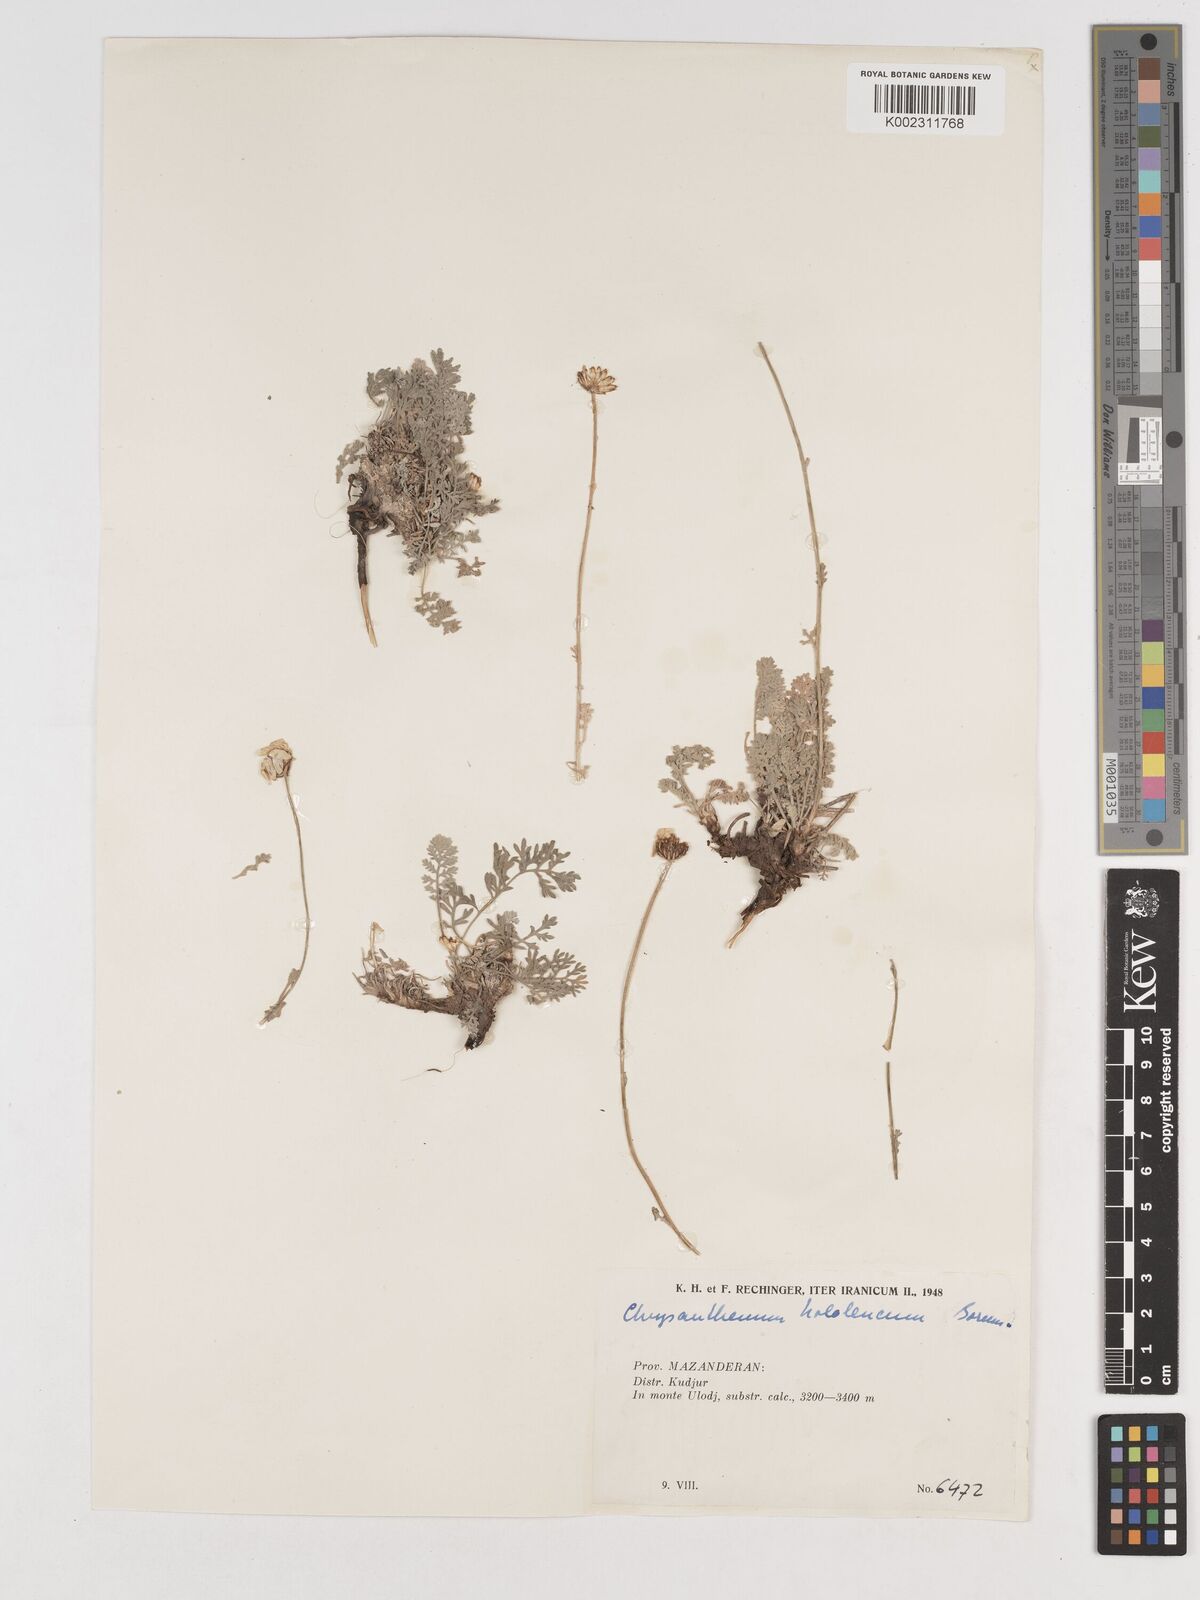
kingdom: Plantae
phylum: Tracheophyta
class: Magnoliopsida
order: Asterales
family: Asteraceae
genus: Tanacetum
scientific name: Tanacetum hololeucum
